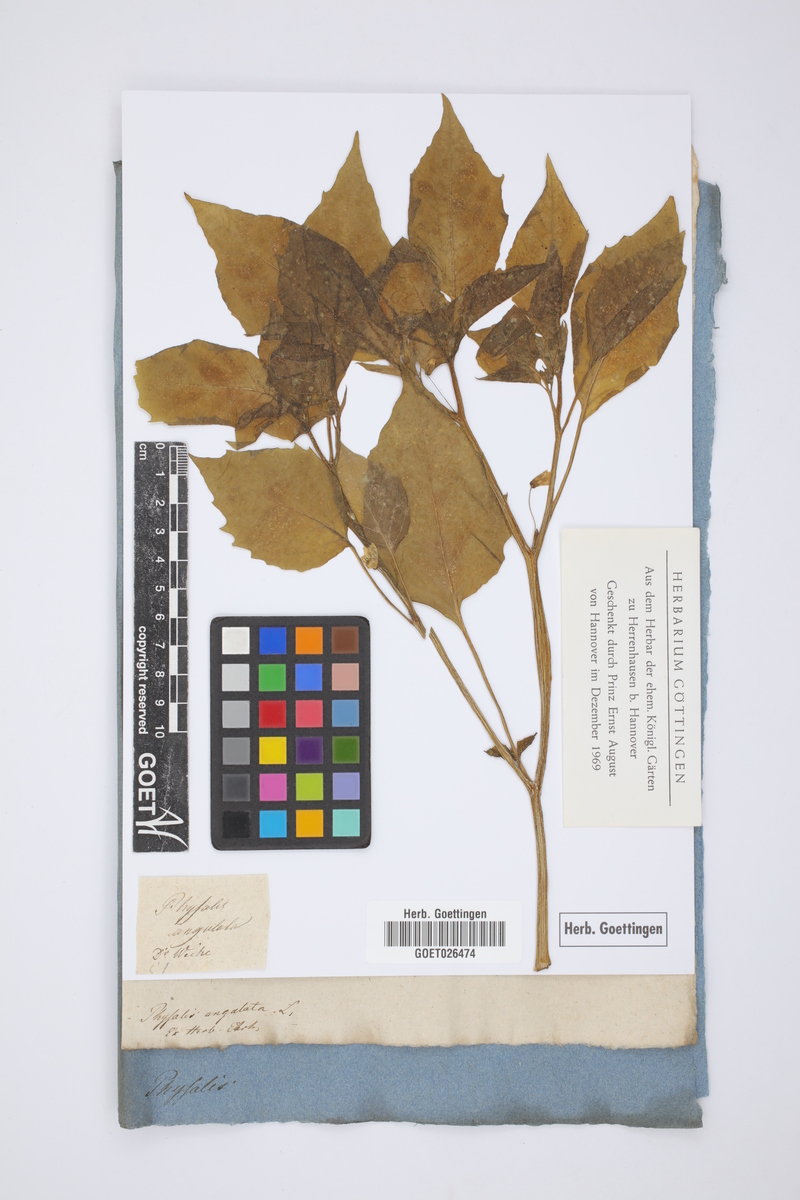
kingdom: Plantae
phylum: Tracheophyta
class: Magnoliopsida
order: Solanales
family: Solanaceae
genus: Physalis
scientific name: Physalis angulata
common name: Angular winter-cherry
